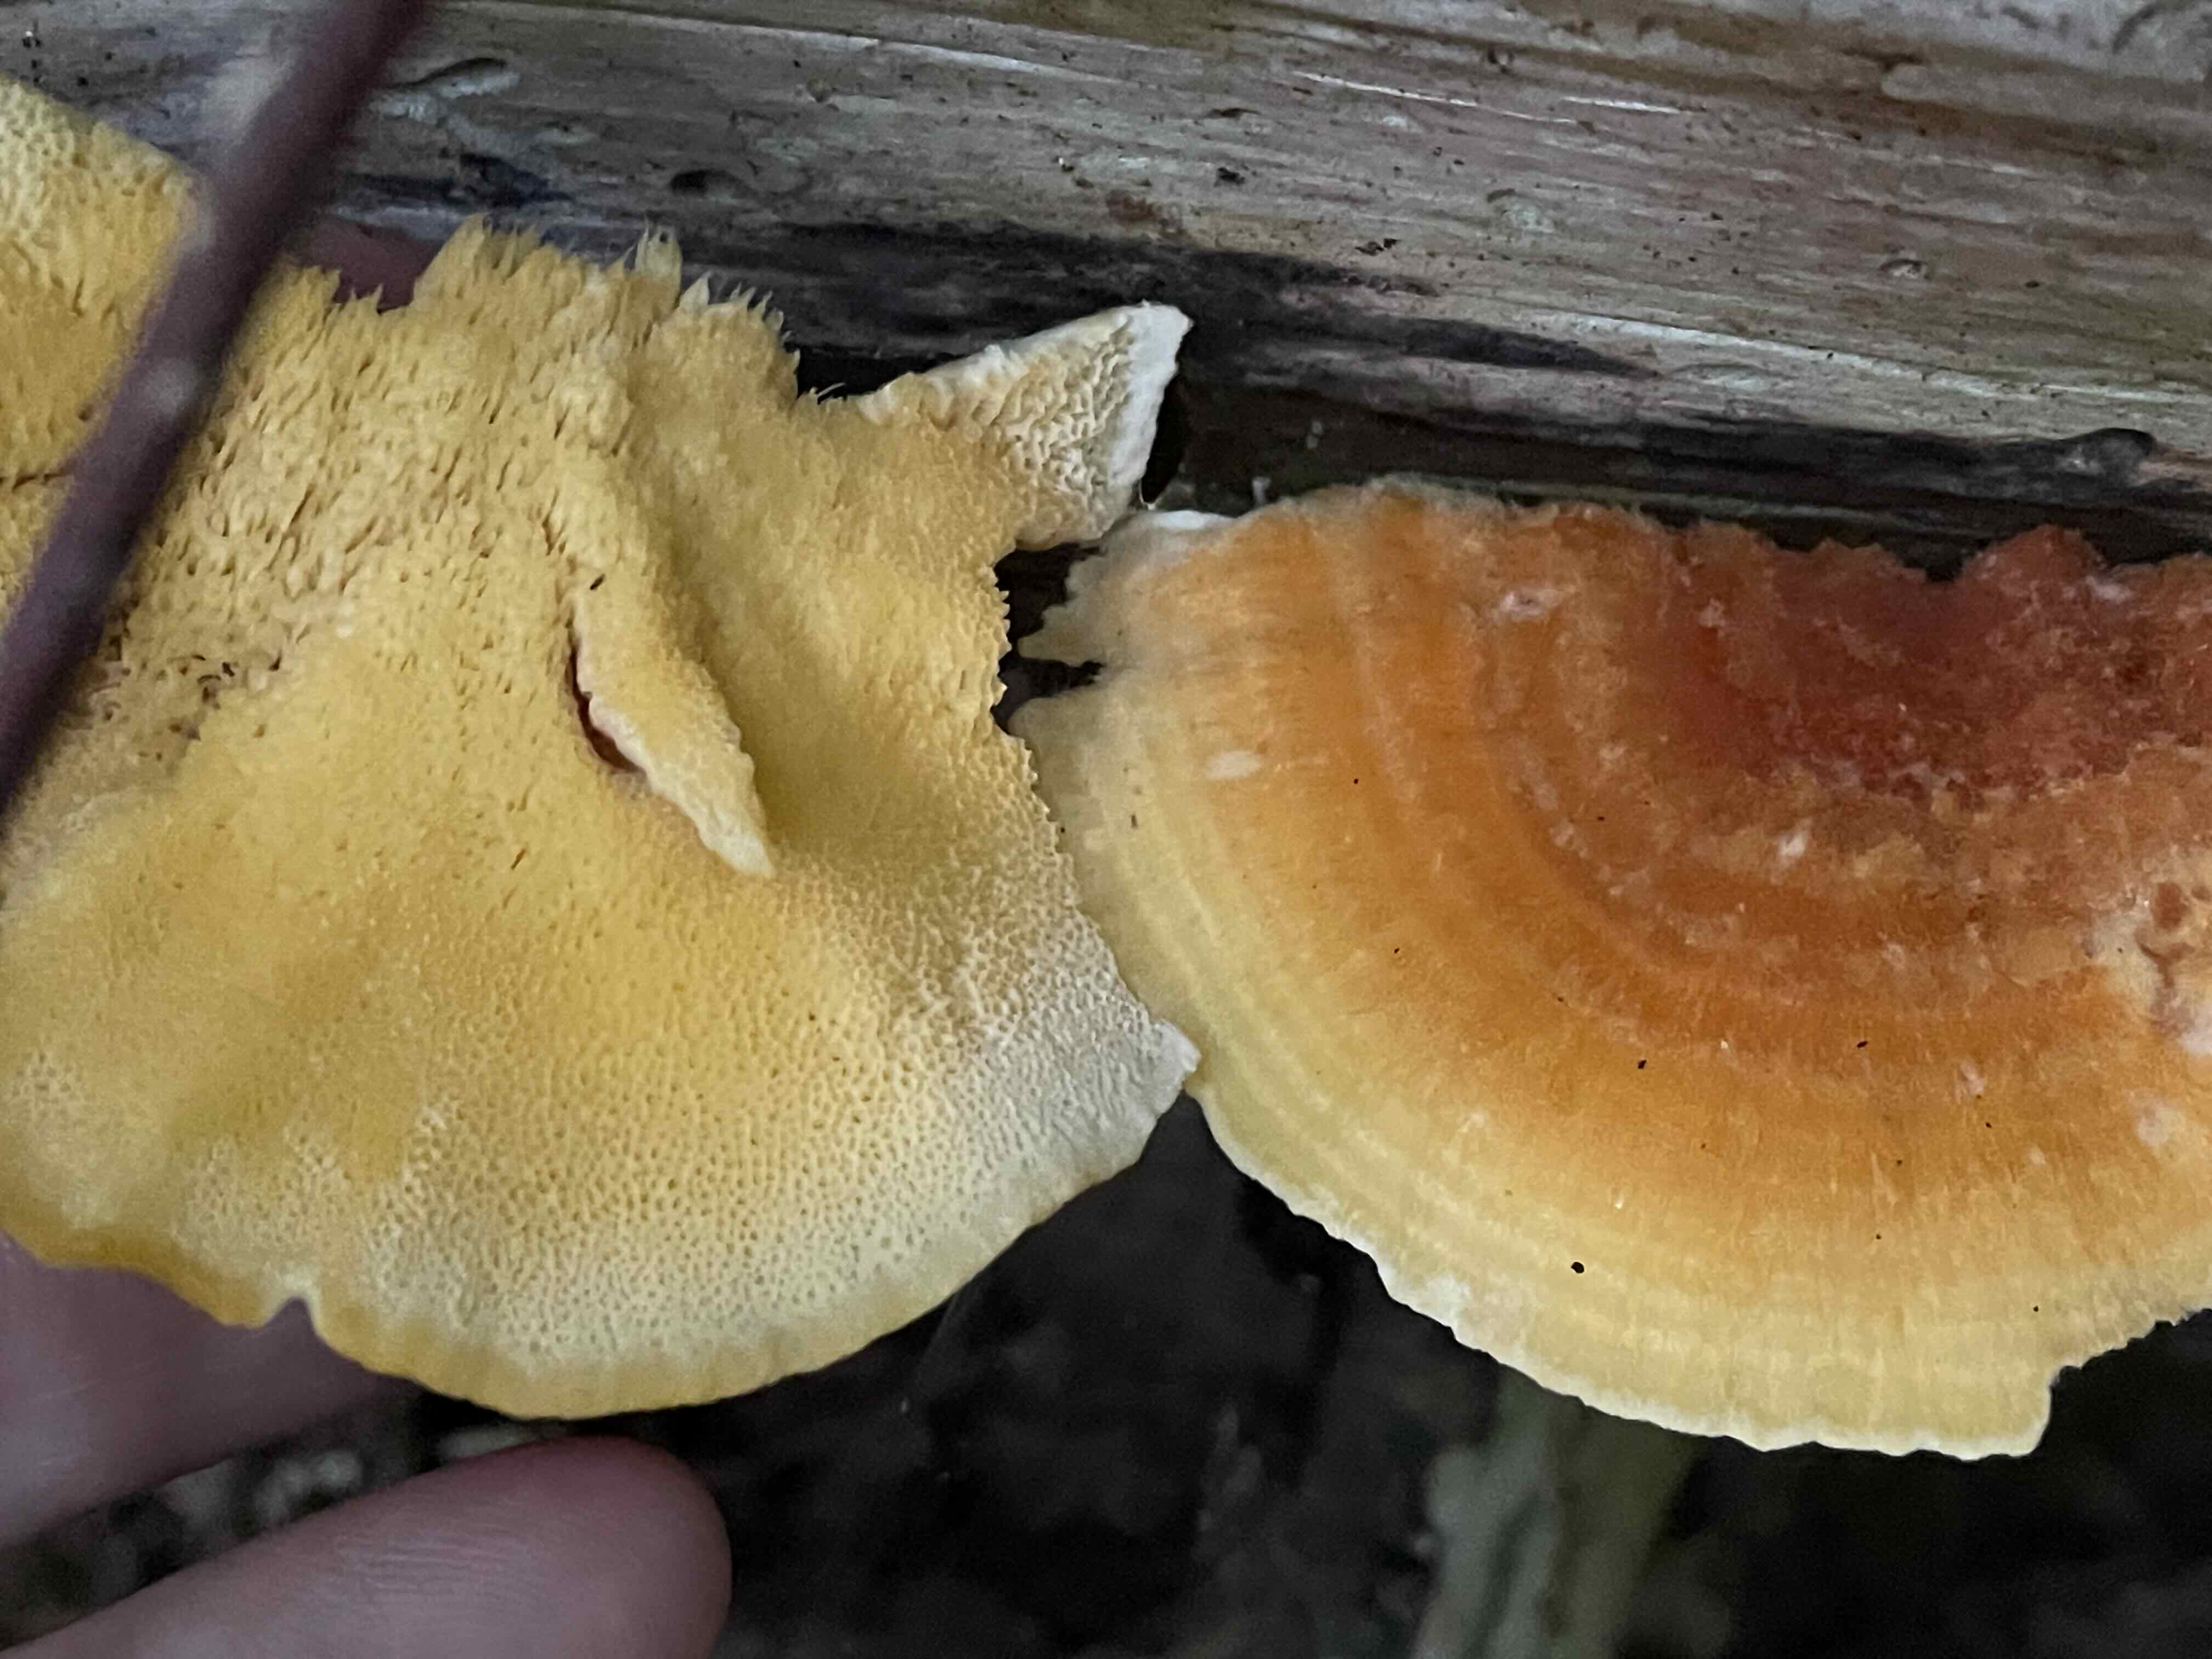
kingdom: Fungi
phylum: Basidiomycota
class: Agaricomycetes
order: Polyporales
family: Pycnoporellaceae
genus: Pycnoporellus
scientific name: Pycnoporellus fulgens
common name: flammeporesvamp
